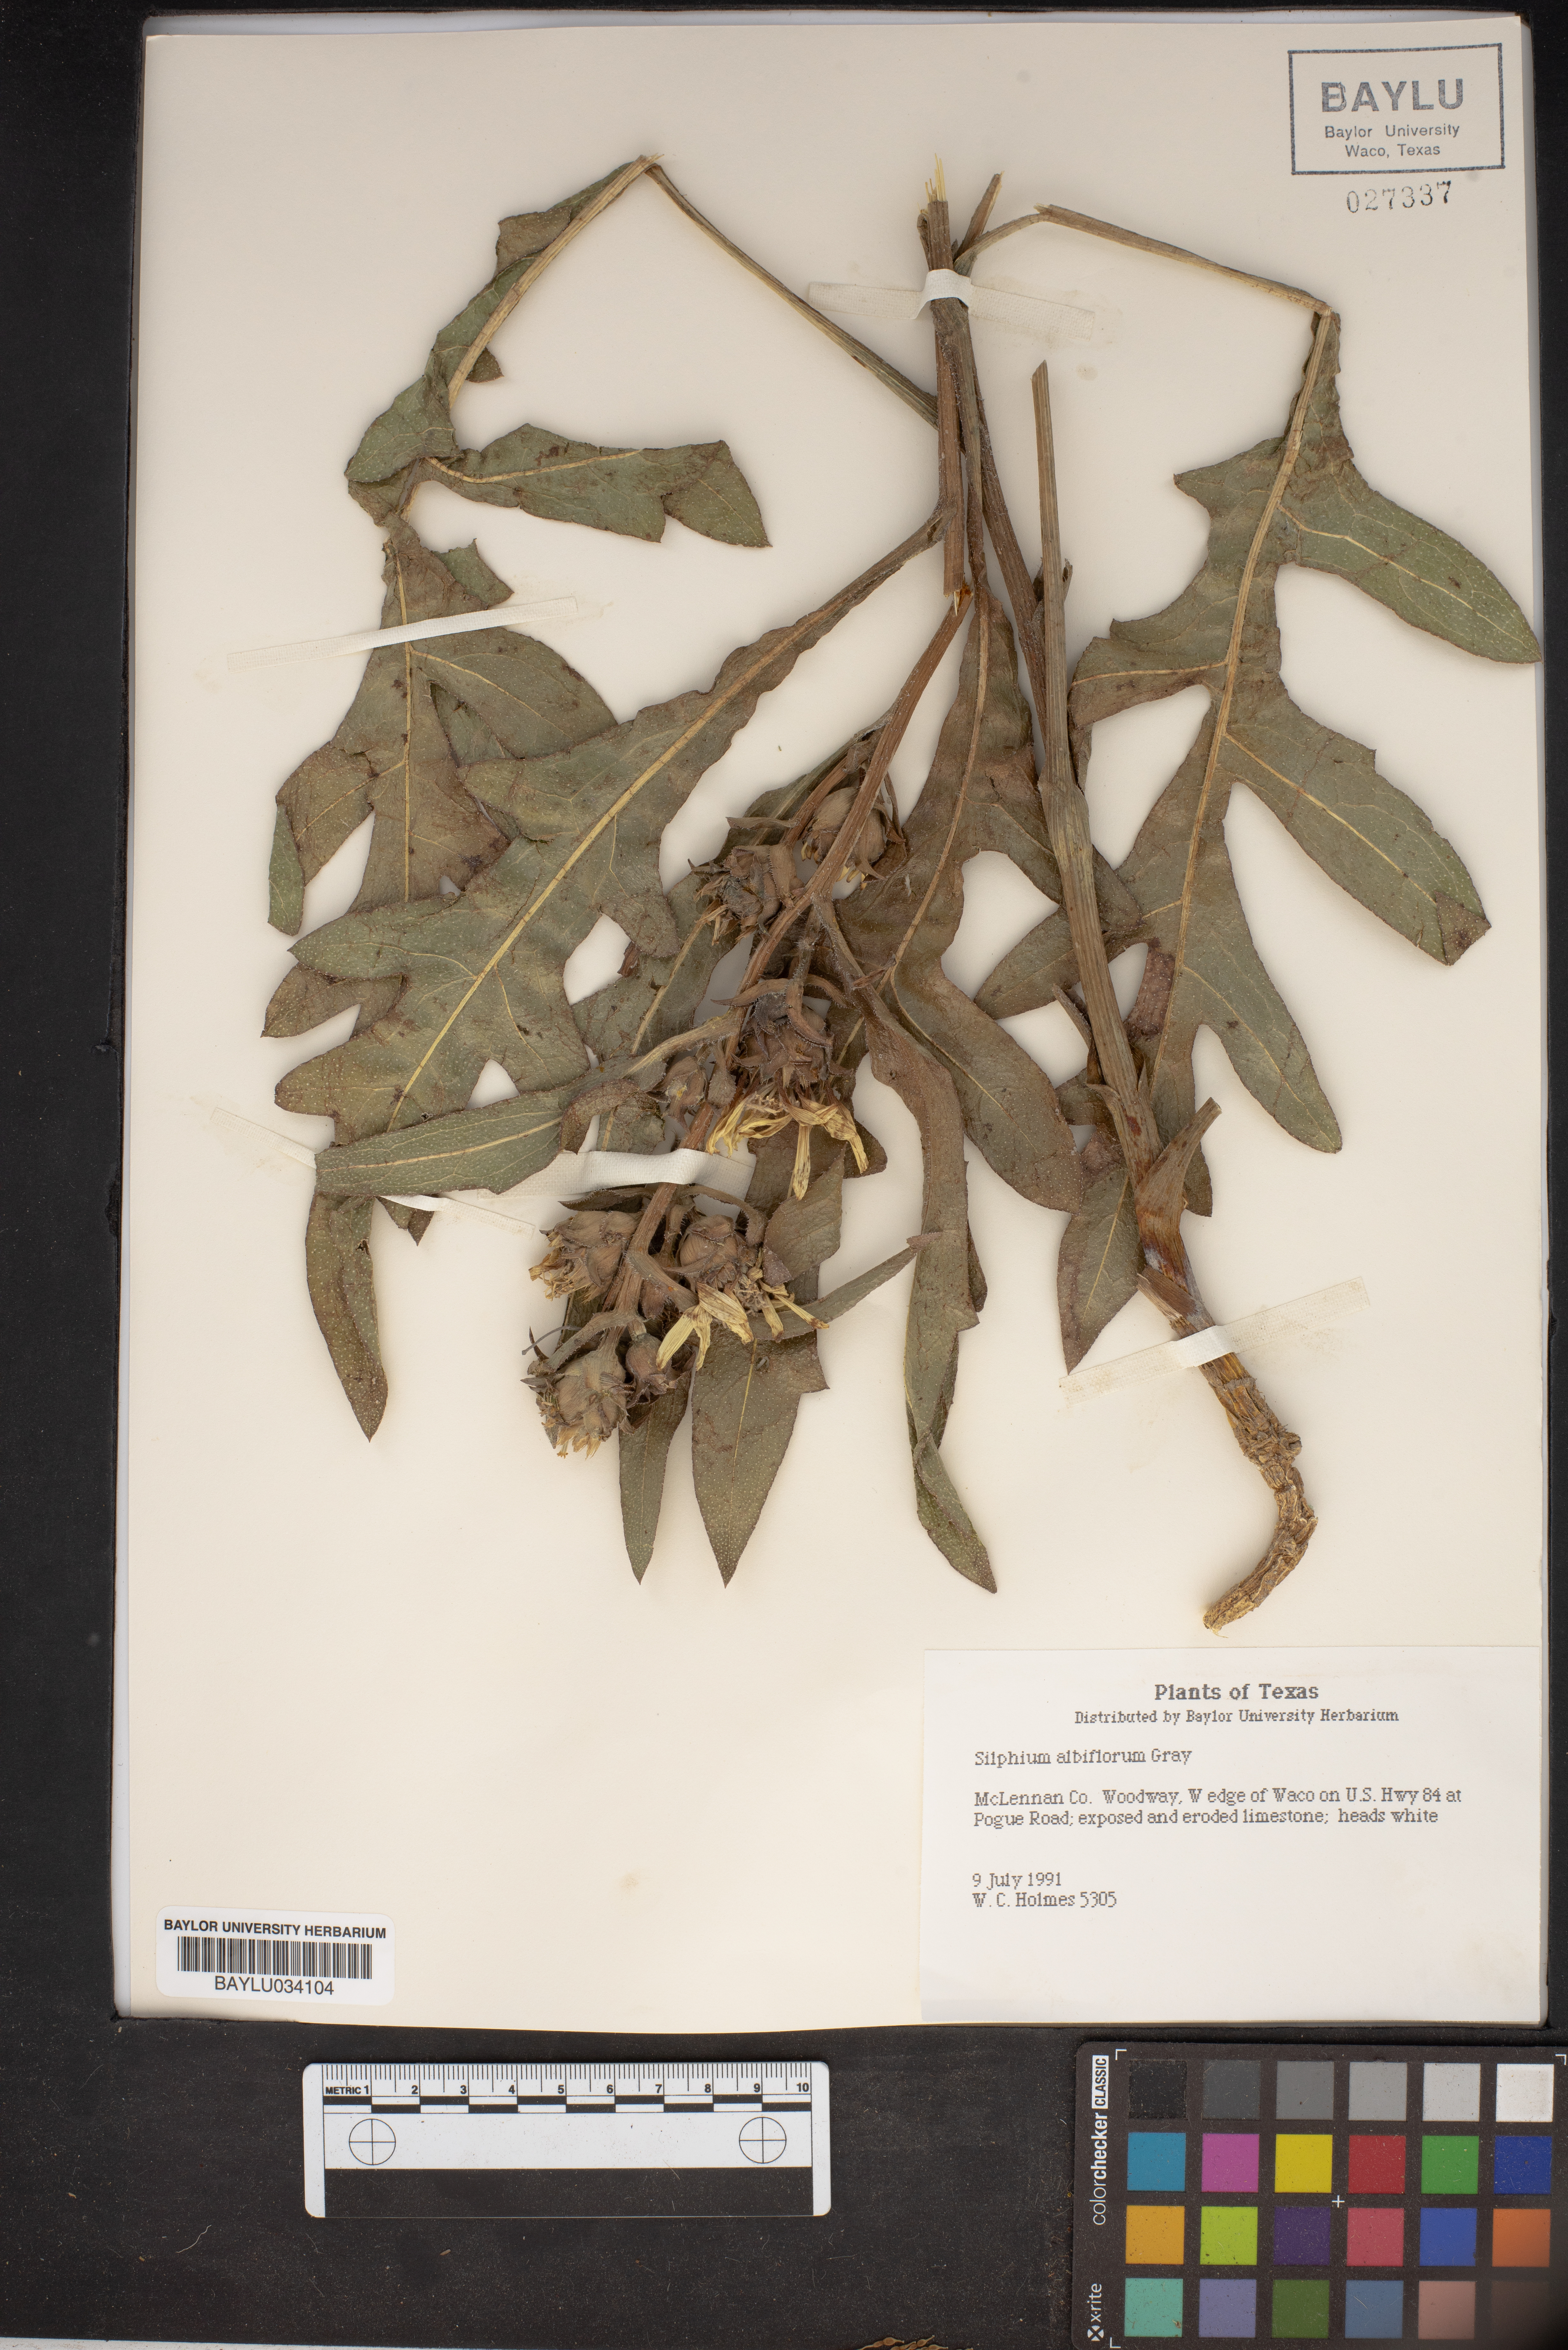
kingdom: Plantae
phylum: Tracheophyta
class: Magnoliopsida
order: Asterales
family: Asteraceae
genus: Silphium
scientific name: Silphium albiflorum
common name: White rosinweed
